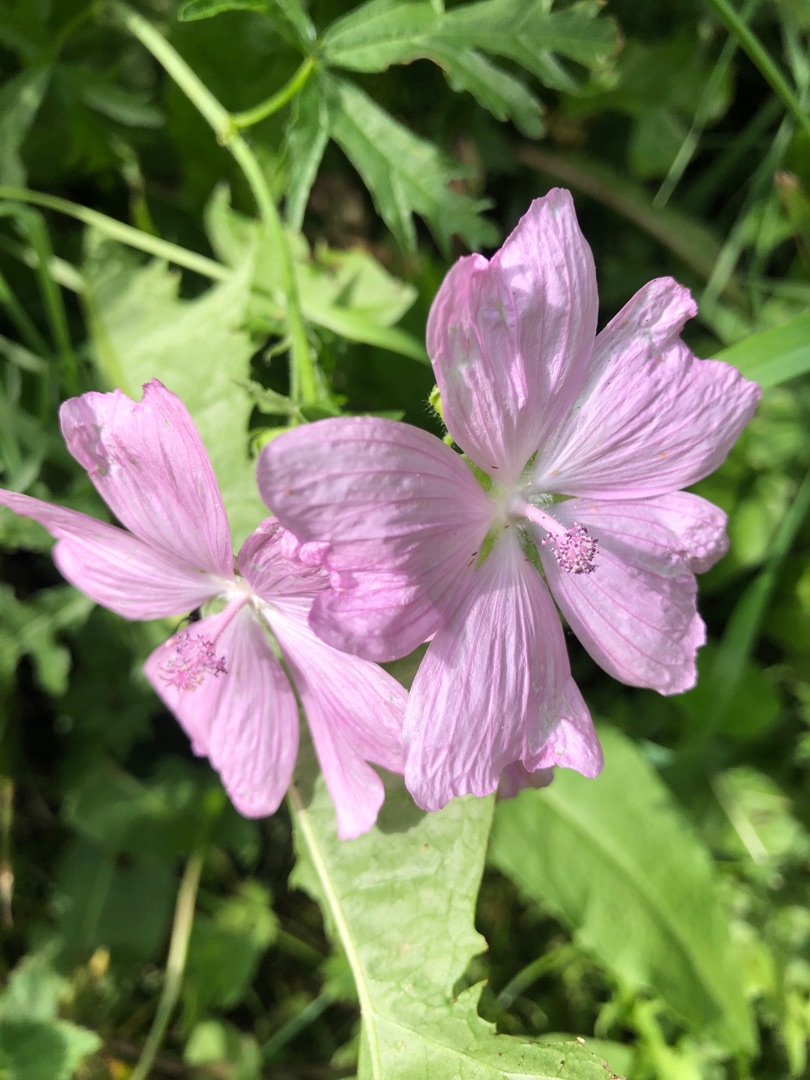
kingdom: Plantae
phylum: Tracheophyta
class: Magnoliopsida
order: Malvales
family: Malvaceae
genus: Malva
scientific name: Malva
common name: Katostslægten
